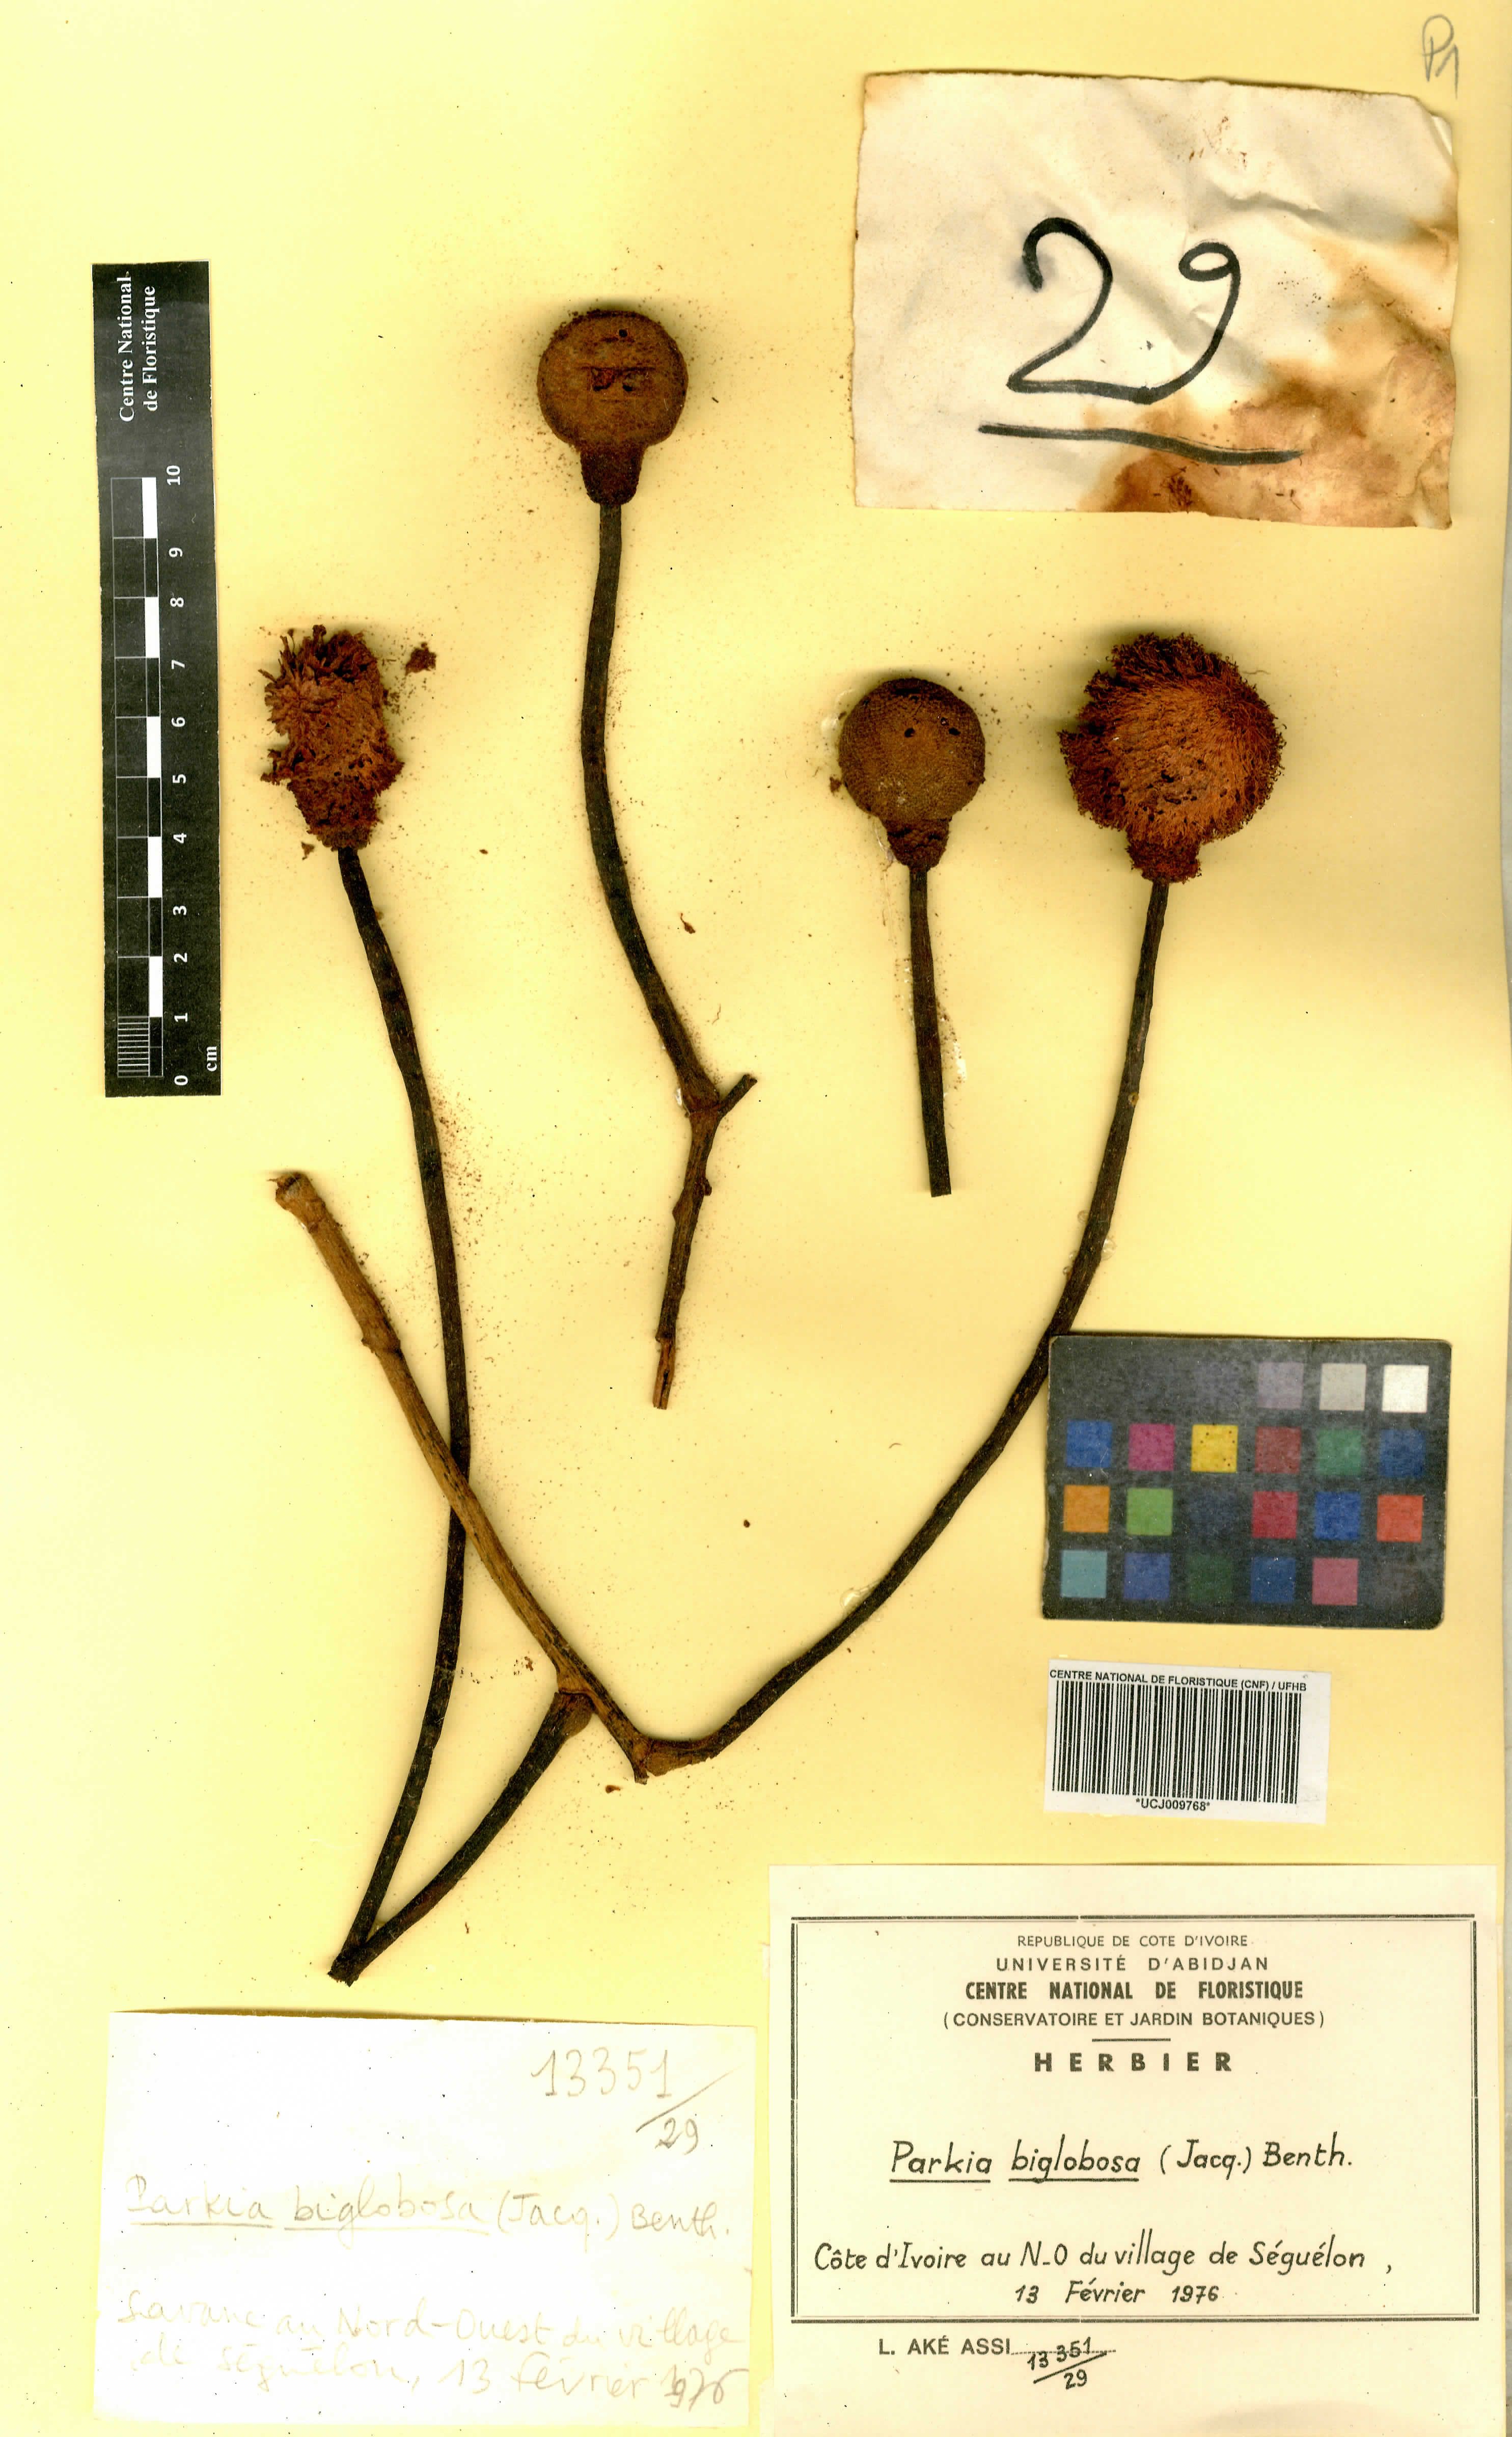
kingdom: Plantae
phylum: Tracheophyta
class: Magnoliopsida
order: Fabales
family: Fabaceae
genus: Parkia
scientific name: Parkia timoriana
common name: Legume
